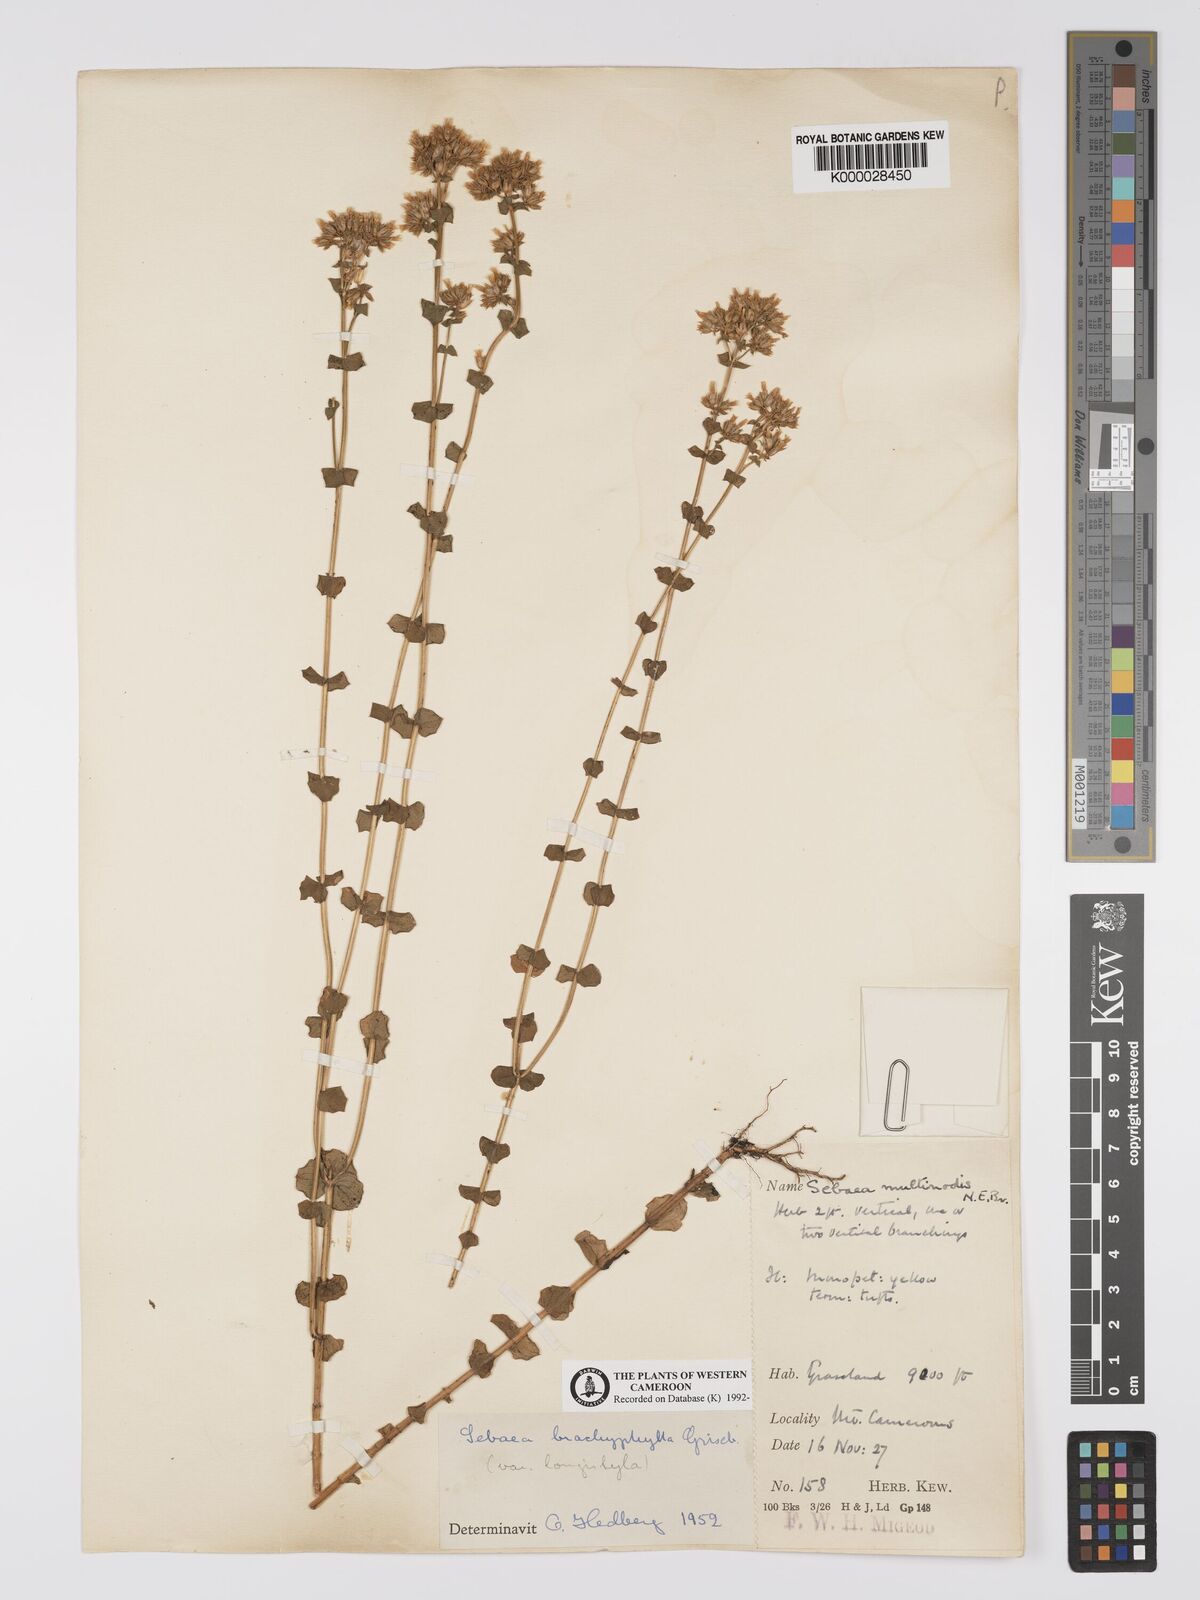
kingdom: Plantae
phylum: Tracheophyta
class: Magnoliopsida
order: Gentianales
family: Gentianaceae
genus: Sebaea
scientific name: Sebaea brachyphylla
